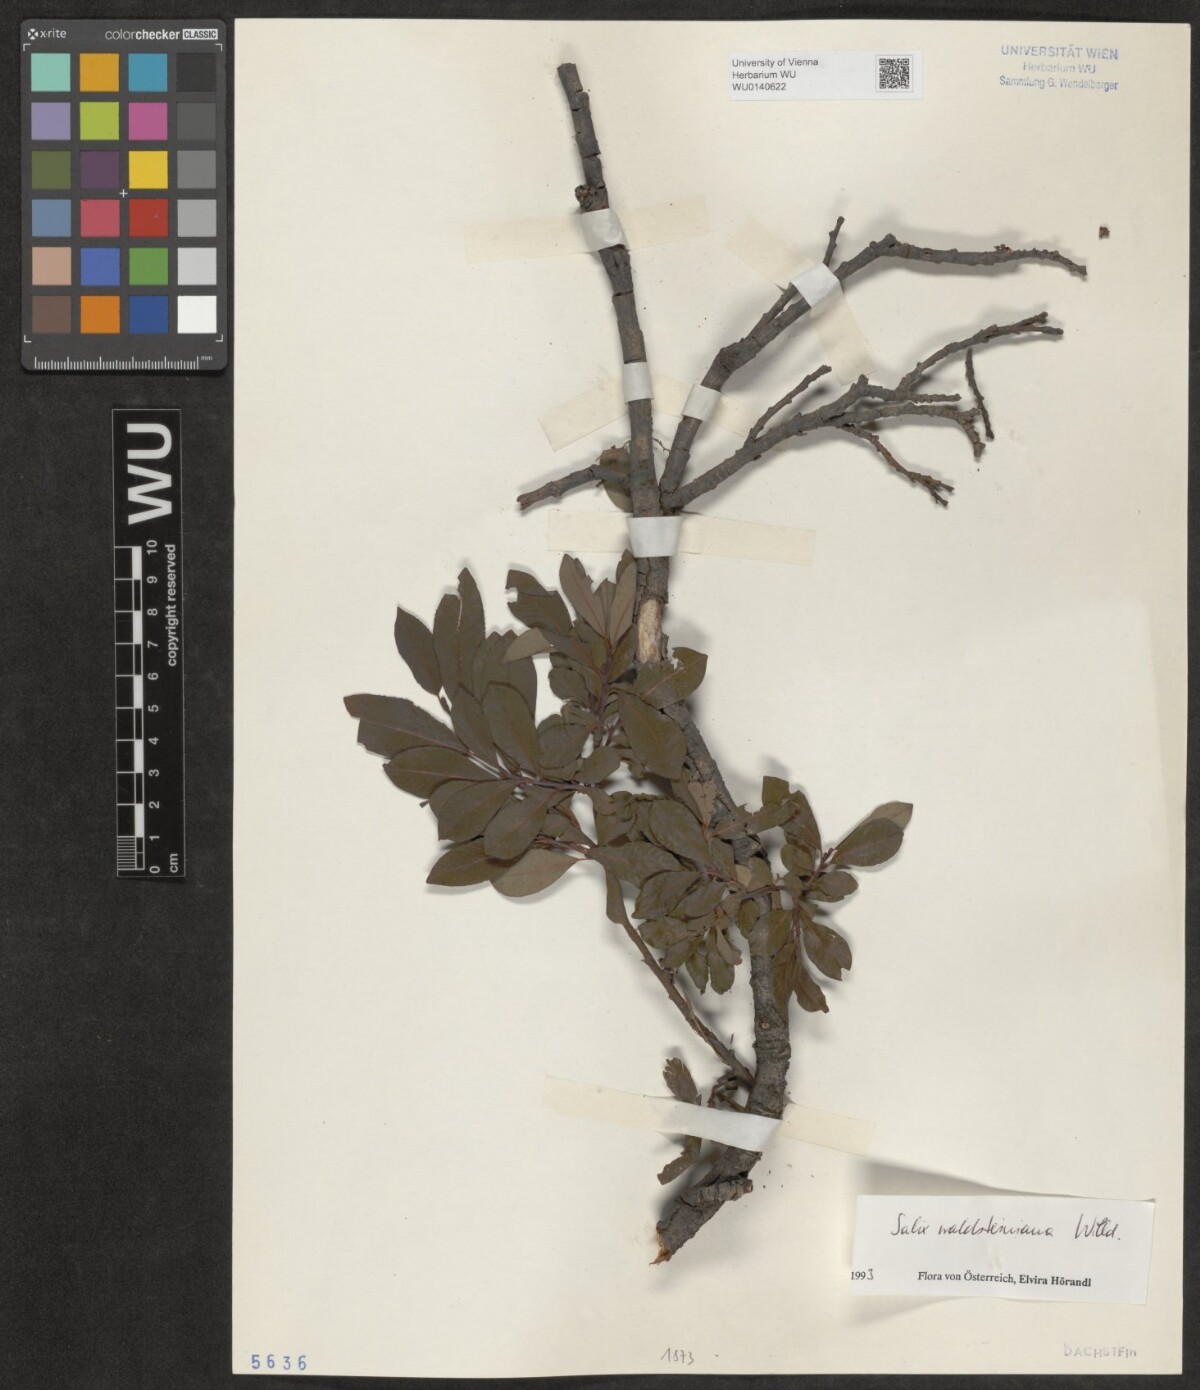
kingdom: Plantae
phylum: Tracheophyta
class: Magnoliopsida
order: Malpighiales
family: Salicaceae
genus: Salix
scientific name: Salix waldsteiniana
